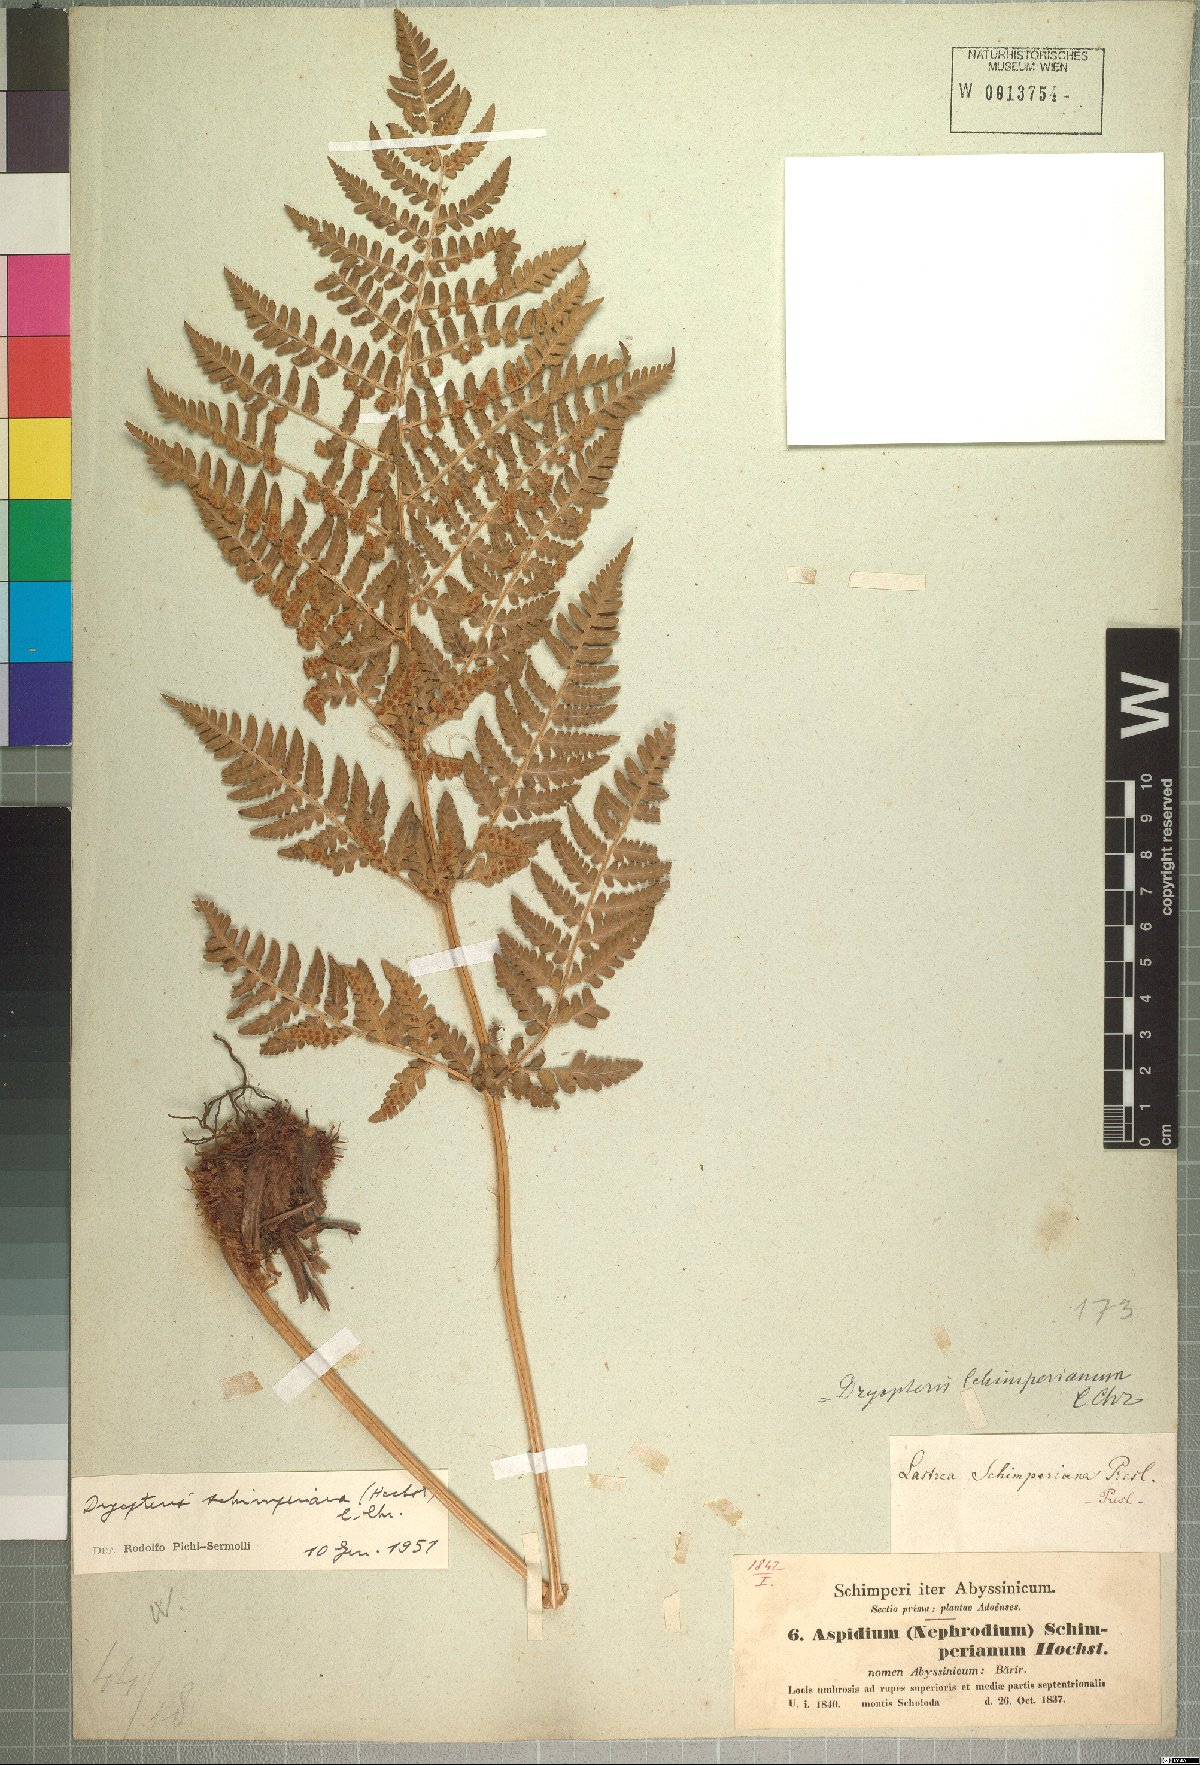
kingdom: Plantae
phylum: Tracheophyta
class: Polypodiopsida
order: Polypodiales
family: Dryopteridaceae
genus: Dryopteris
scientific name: Dryopteris schimperiana
